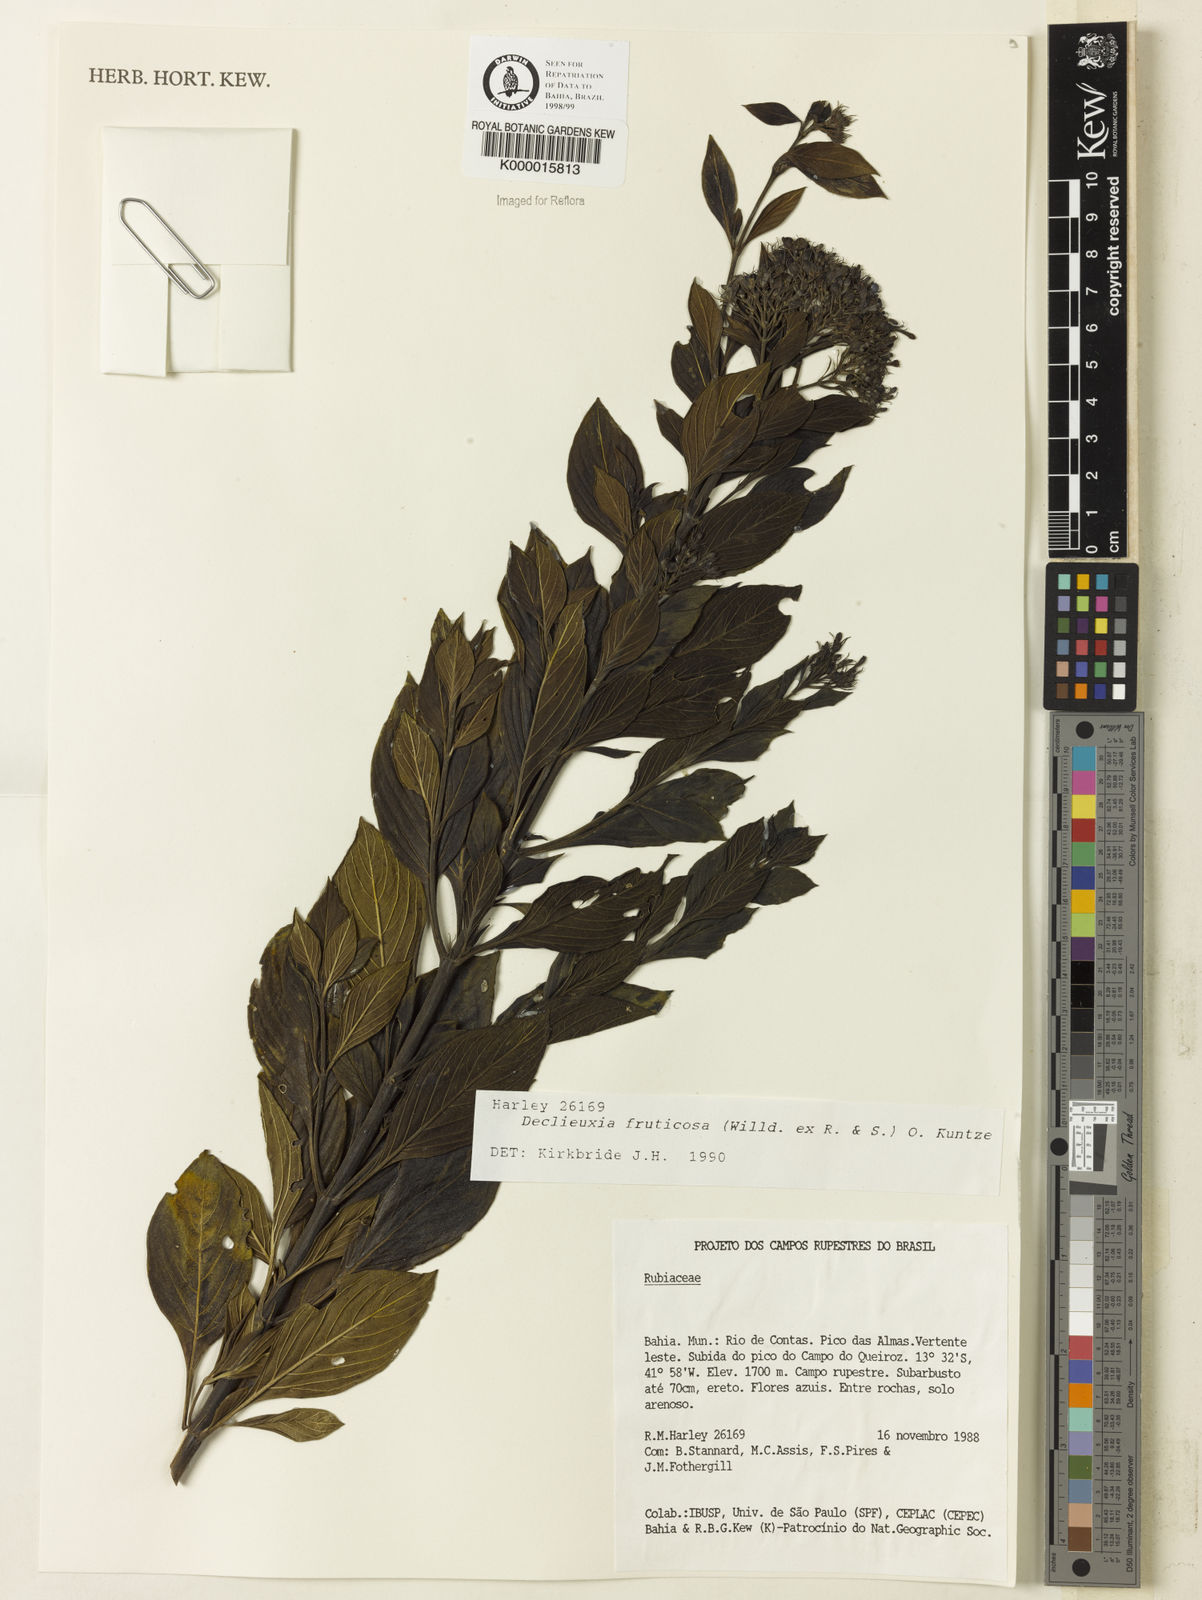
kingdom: Plantae
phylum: Tracheophyta
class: Magnoliopsida
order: Gentianales
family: Rubiaceae
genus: Declieuxia
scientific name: Declieuxia fruticosa
